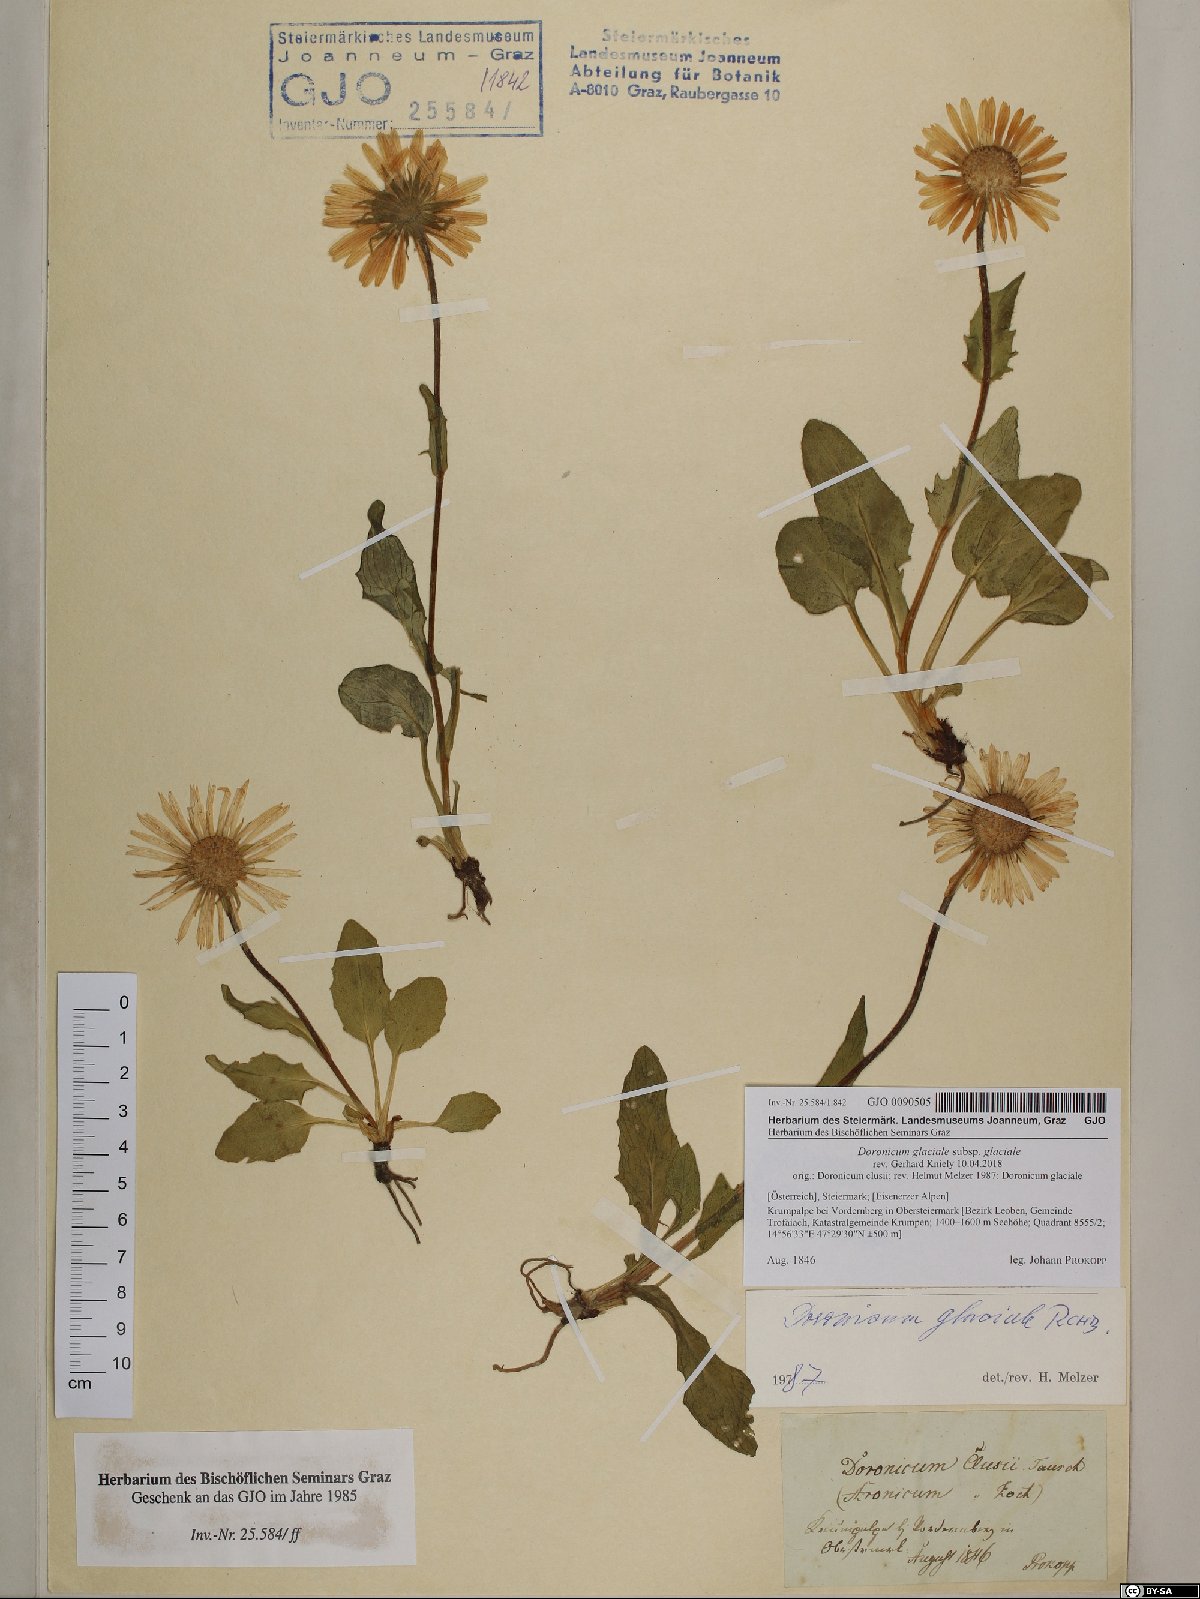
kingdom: Plantae
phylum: Tracheophyta
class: Magnoliopsida
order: Asterales
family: Asteraceae
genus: Doronicum
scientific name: Doronicum glaciale
